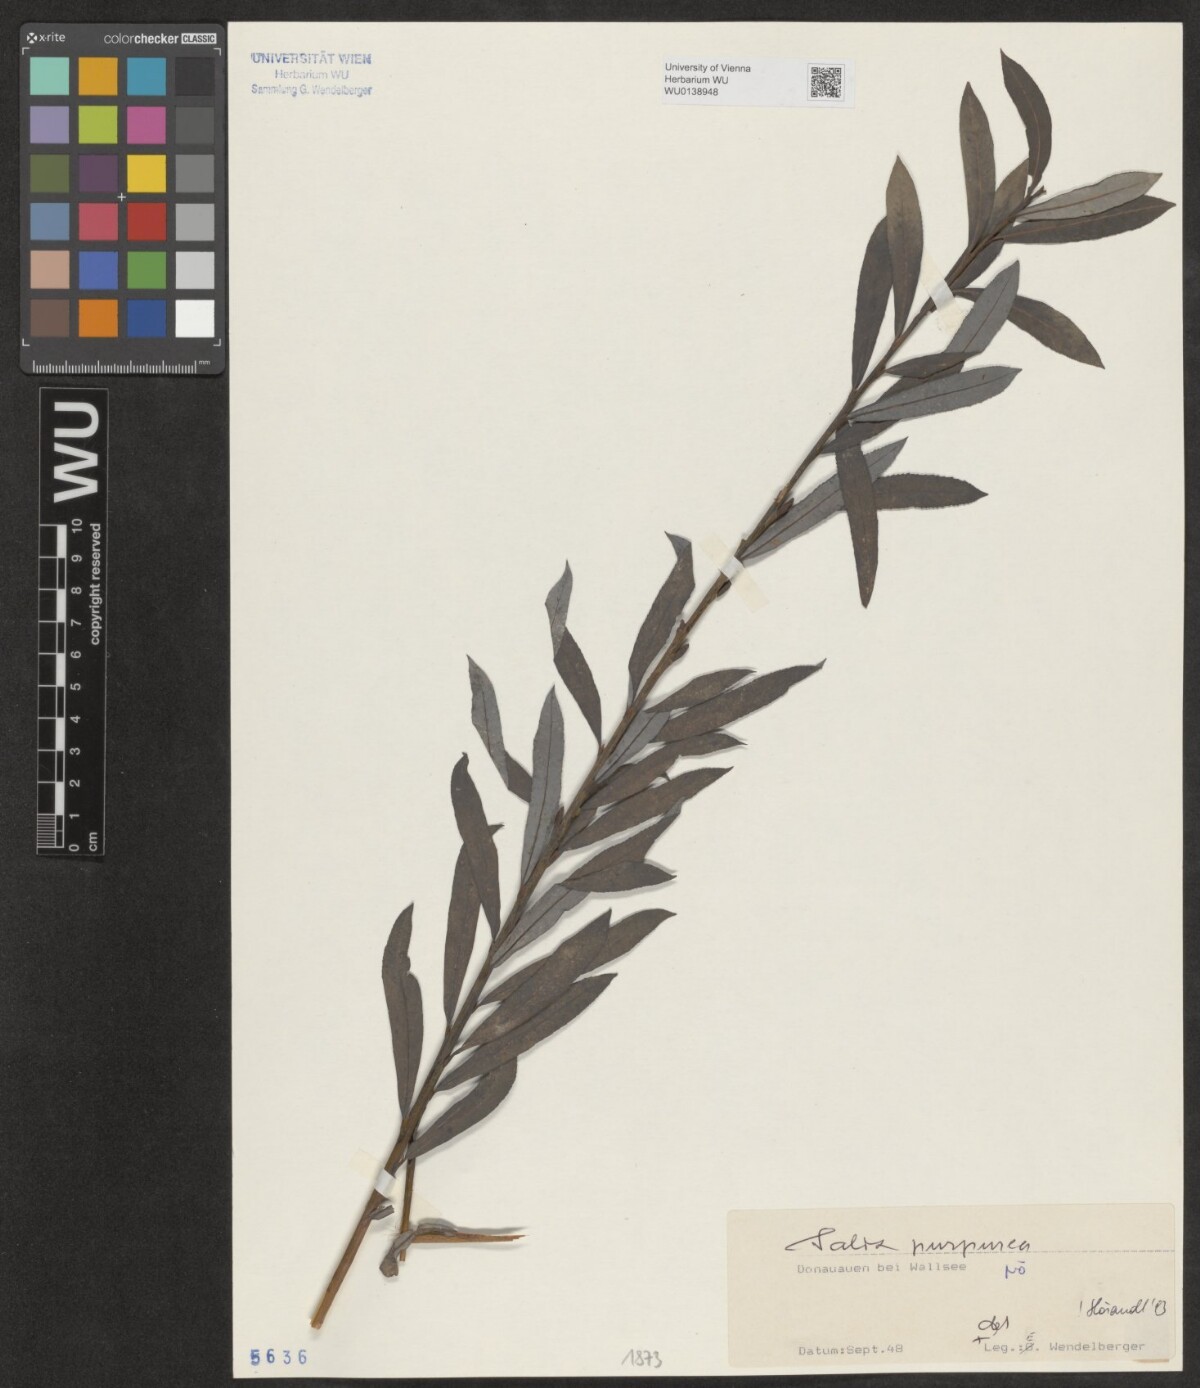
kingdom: Plantae
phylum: Tracheophyta
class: Magnoliopsida
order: Malpighiales
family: Salicaceae
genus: Salix
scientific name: Salix purpurea
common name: Purple willow
